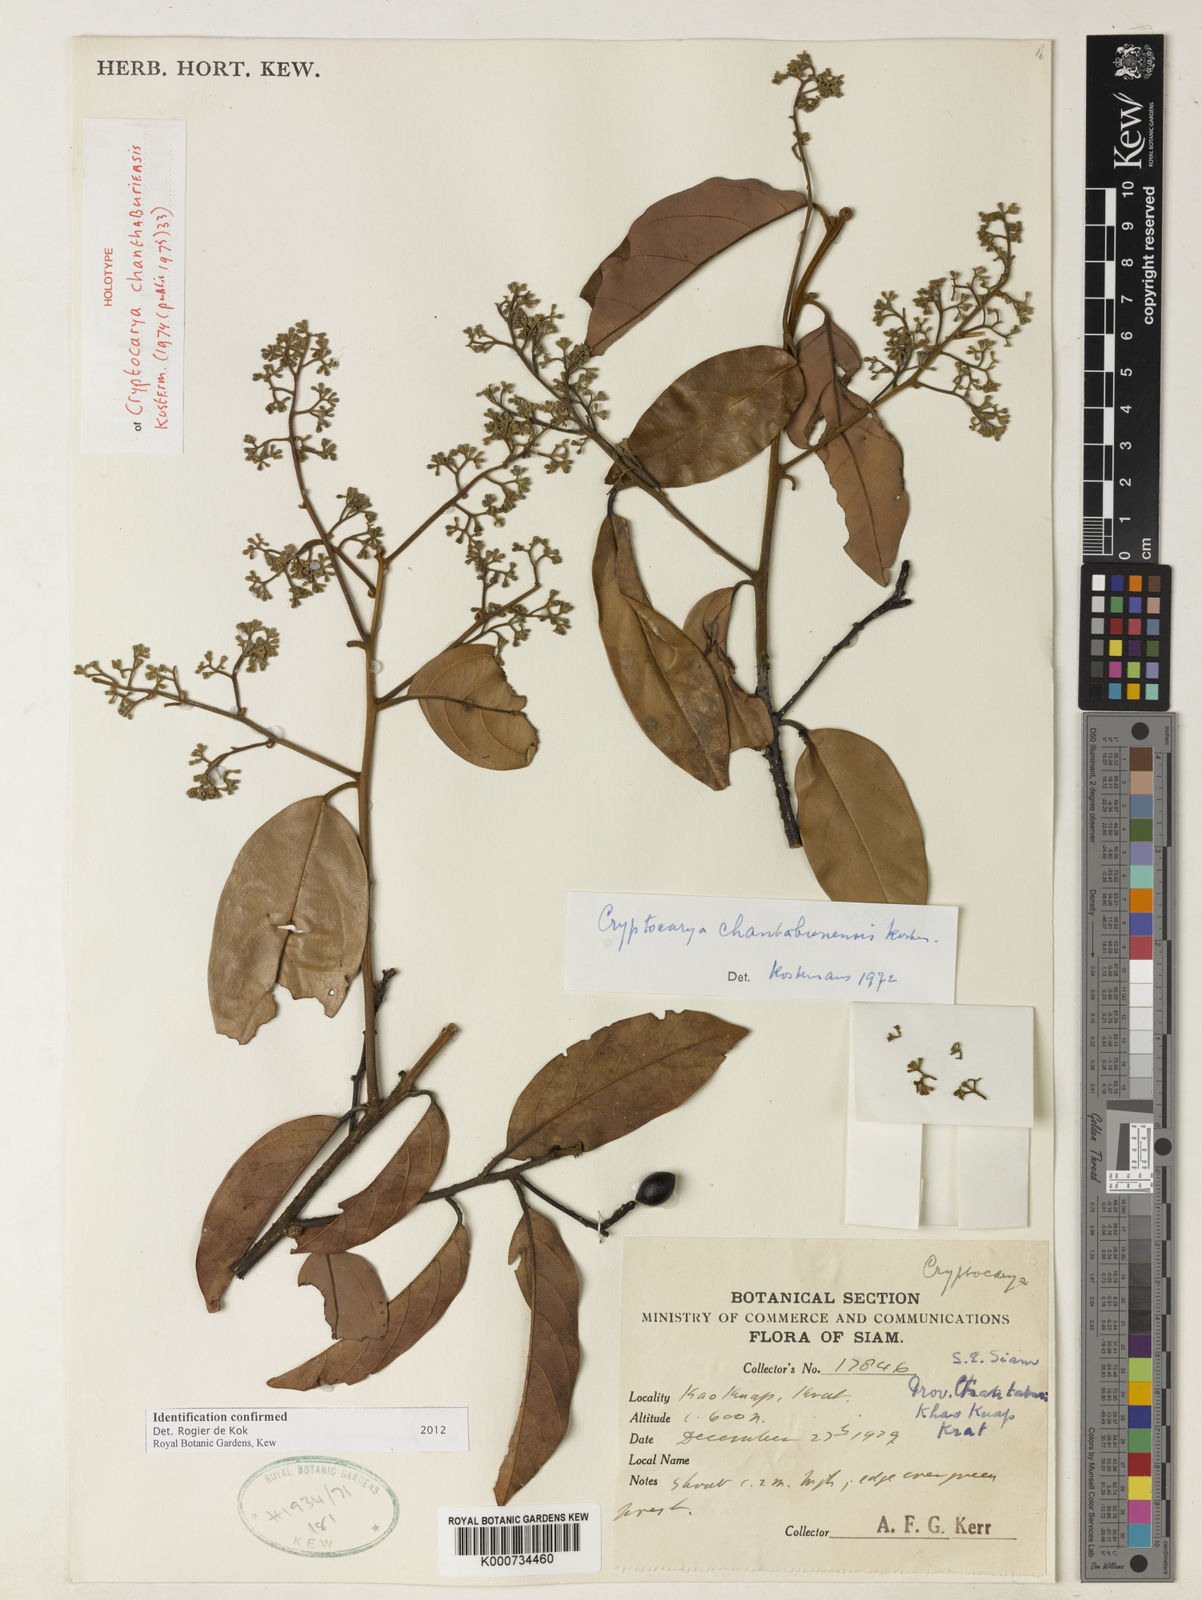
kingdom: Plantae
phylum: Tracheophyta
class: Magnoliopsida
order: Laurales
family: Lauraceae
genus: Cryptocarya
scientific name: Cryptocarya chanthaburiensis
